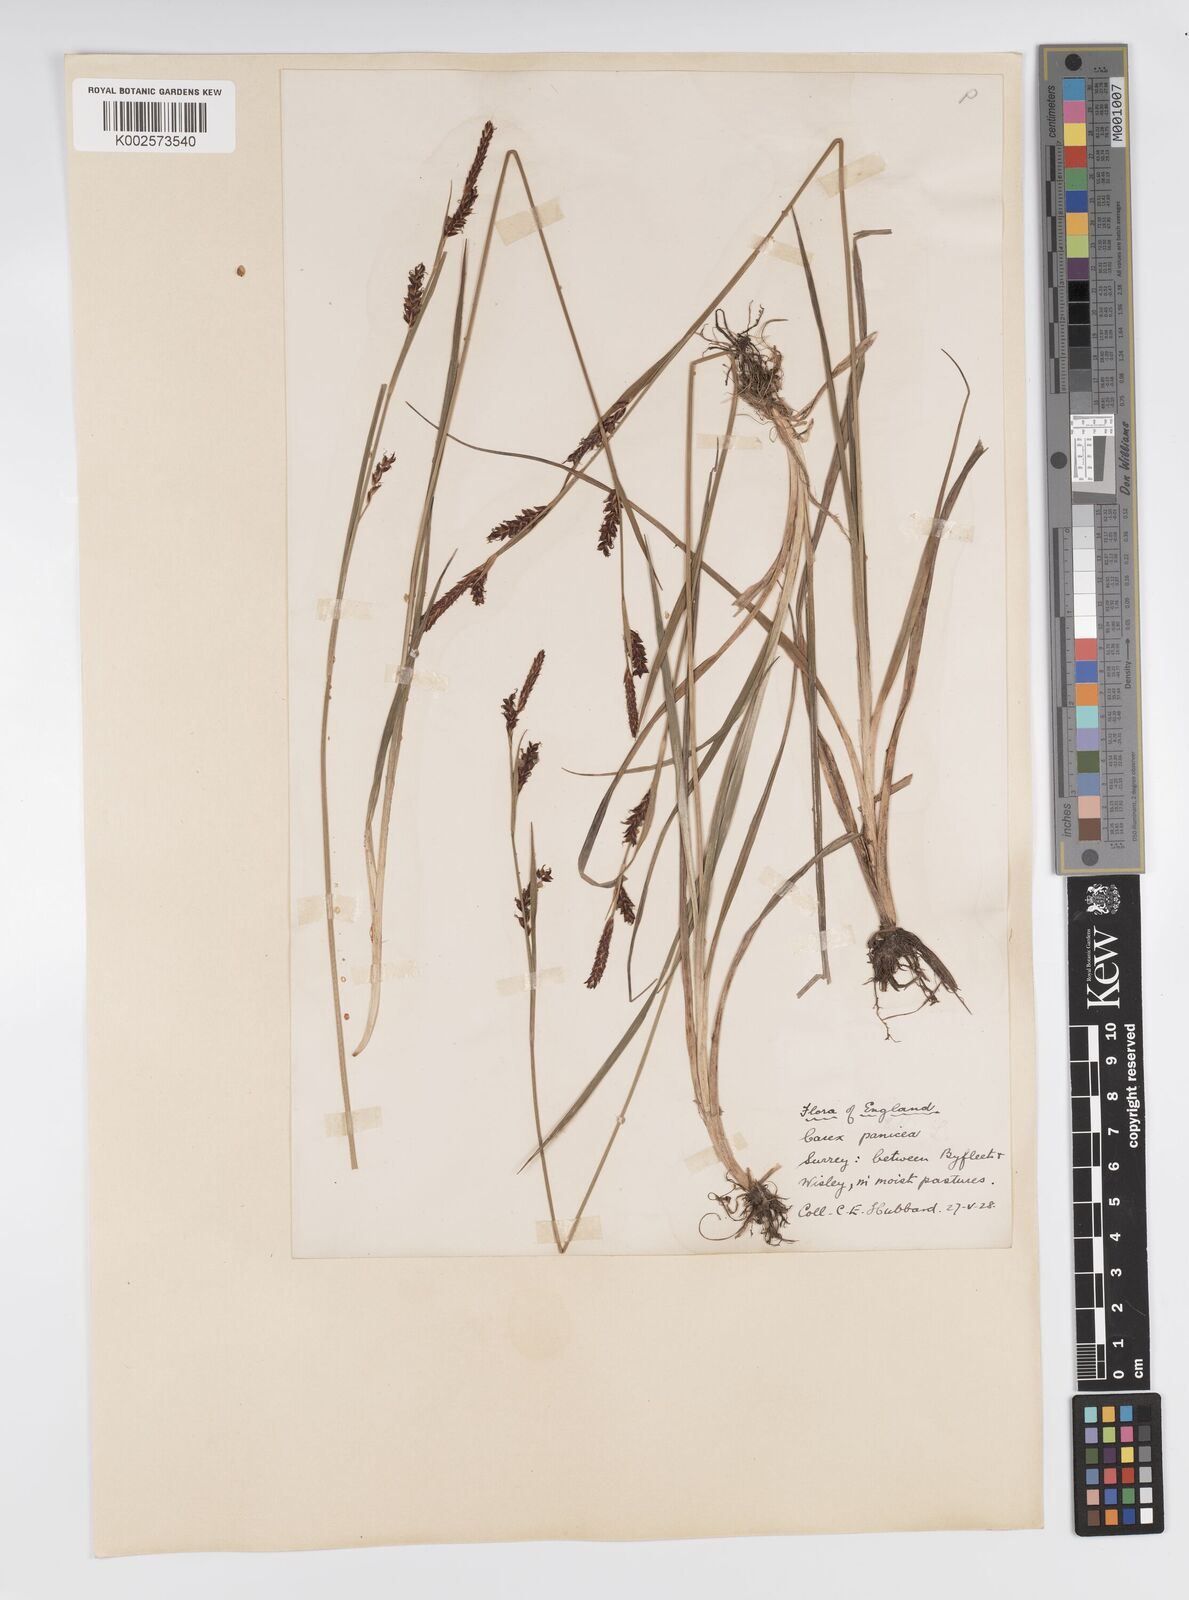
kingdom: Plantae
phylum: Tracheophyta
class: Liliopsida
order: Poales
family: Cyperaceae
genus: Carex
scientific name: Carex panicea
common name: Carnation sedge
